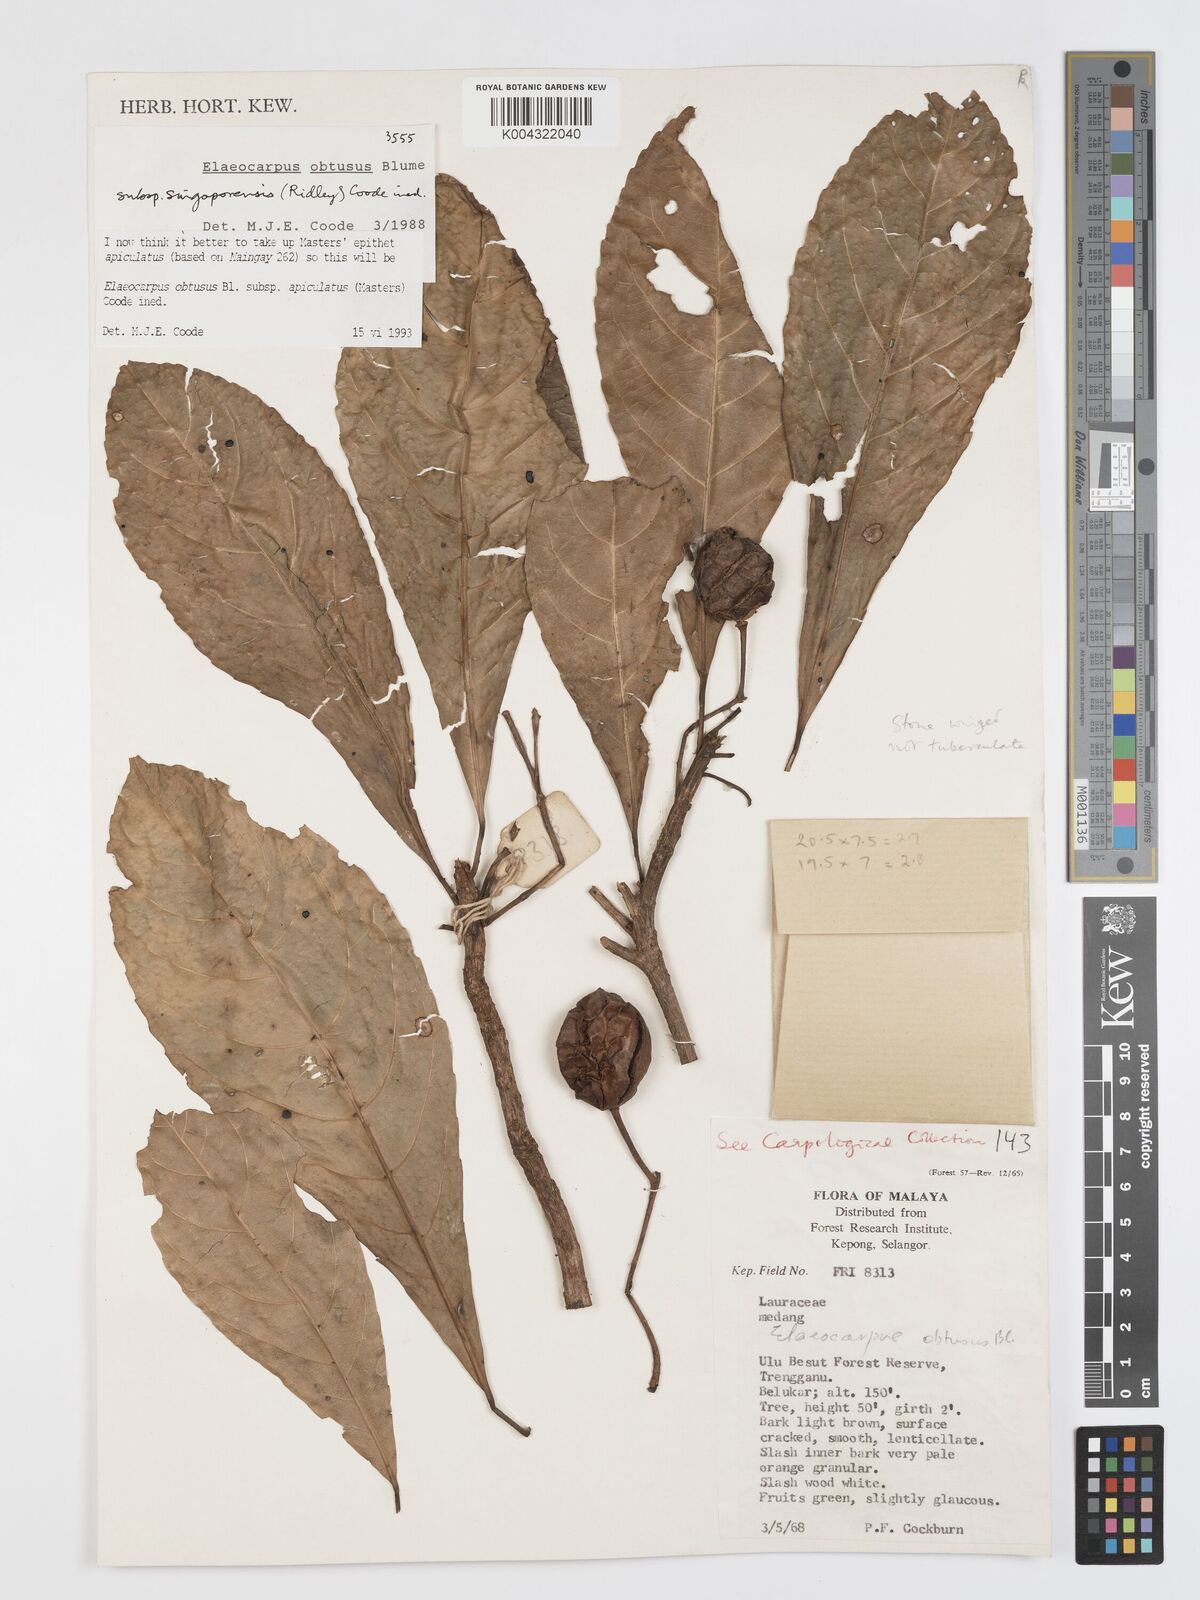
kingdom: Plantae
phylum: Tracheophyta
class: Magnoliopsida
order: Oxalidales
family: Elaeocarpaceae
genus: Elaeocarpus
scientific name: Elaeocarpus obtusus
